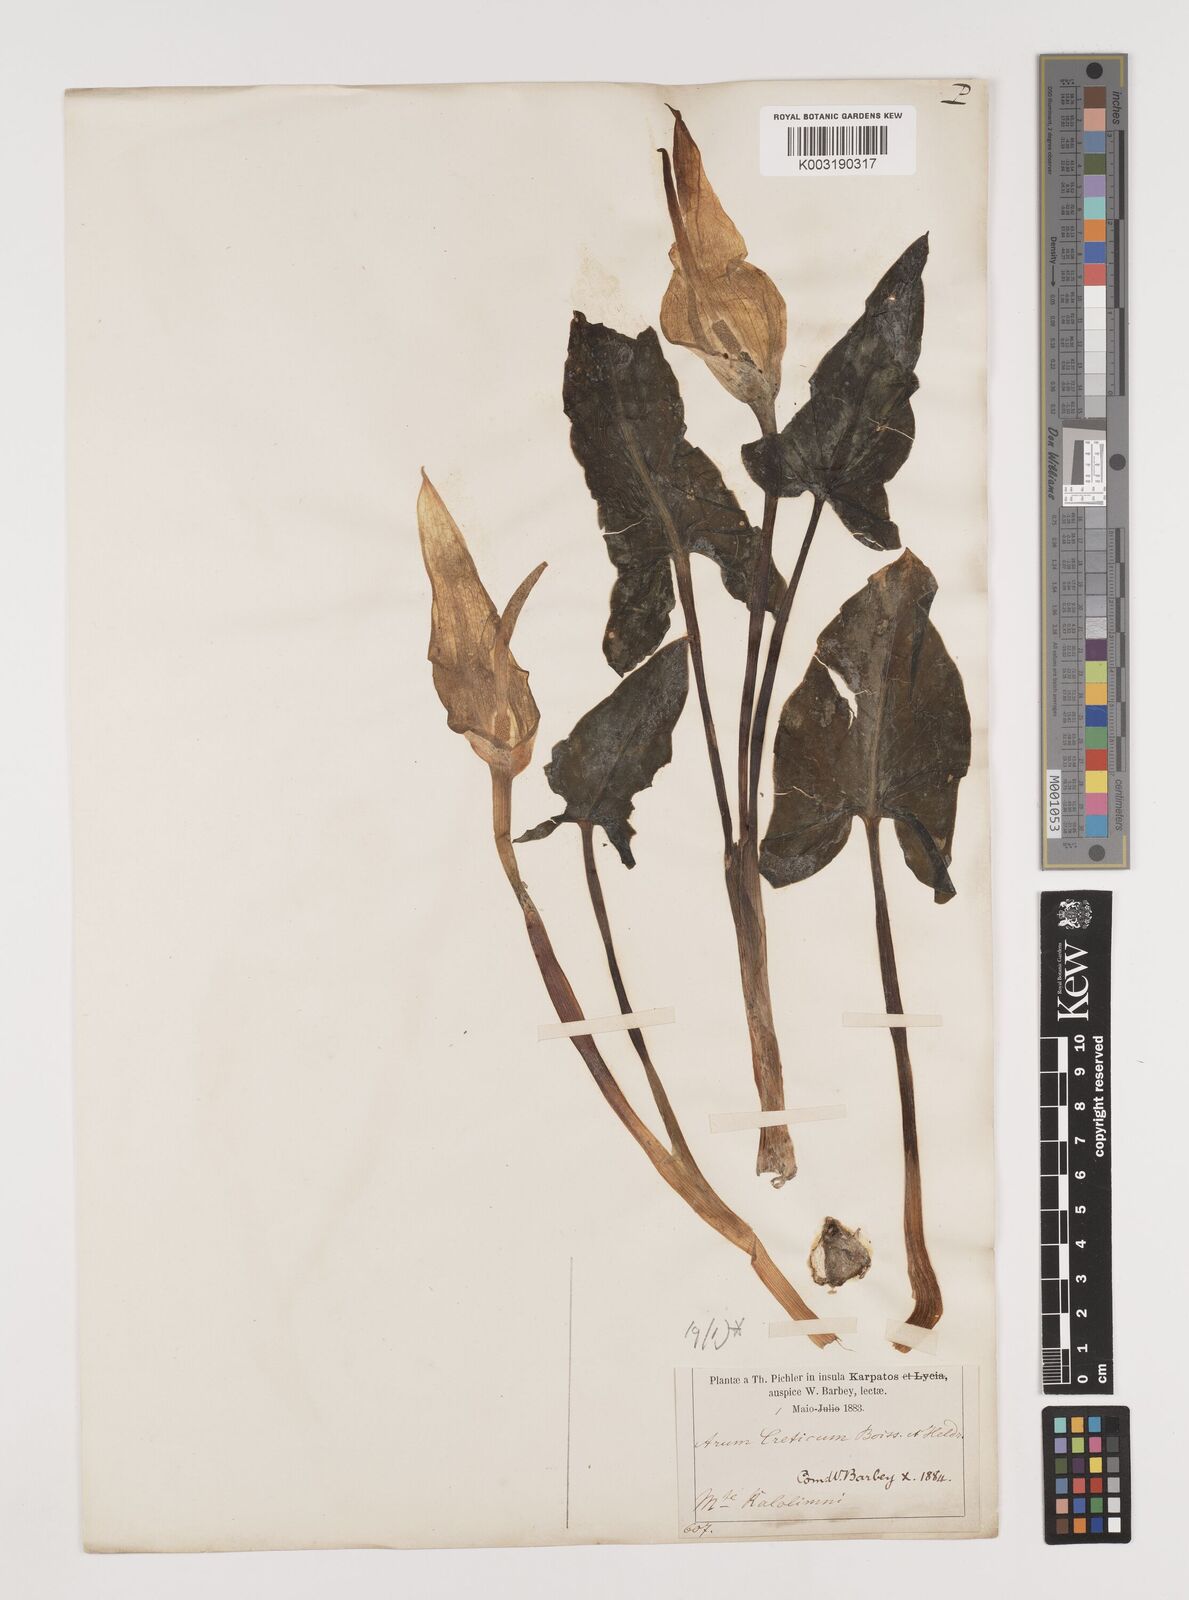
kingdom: Plantae
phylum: Tracheophyta
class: Liliopsida
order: Alismatales
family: Araceae
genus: Arum
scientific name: Arum creticum
